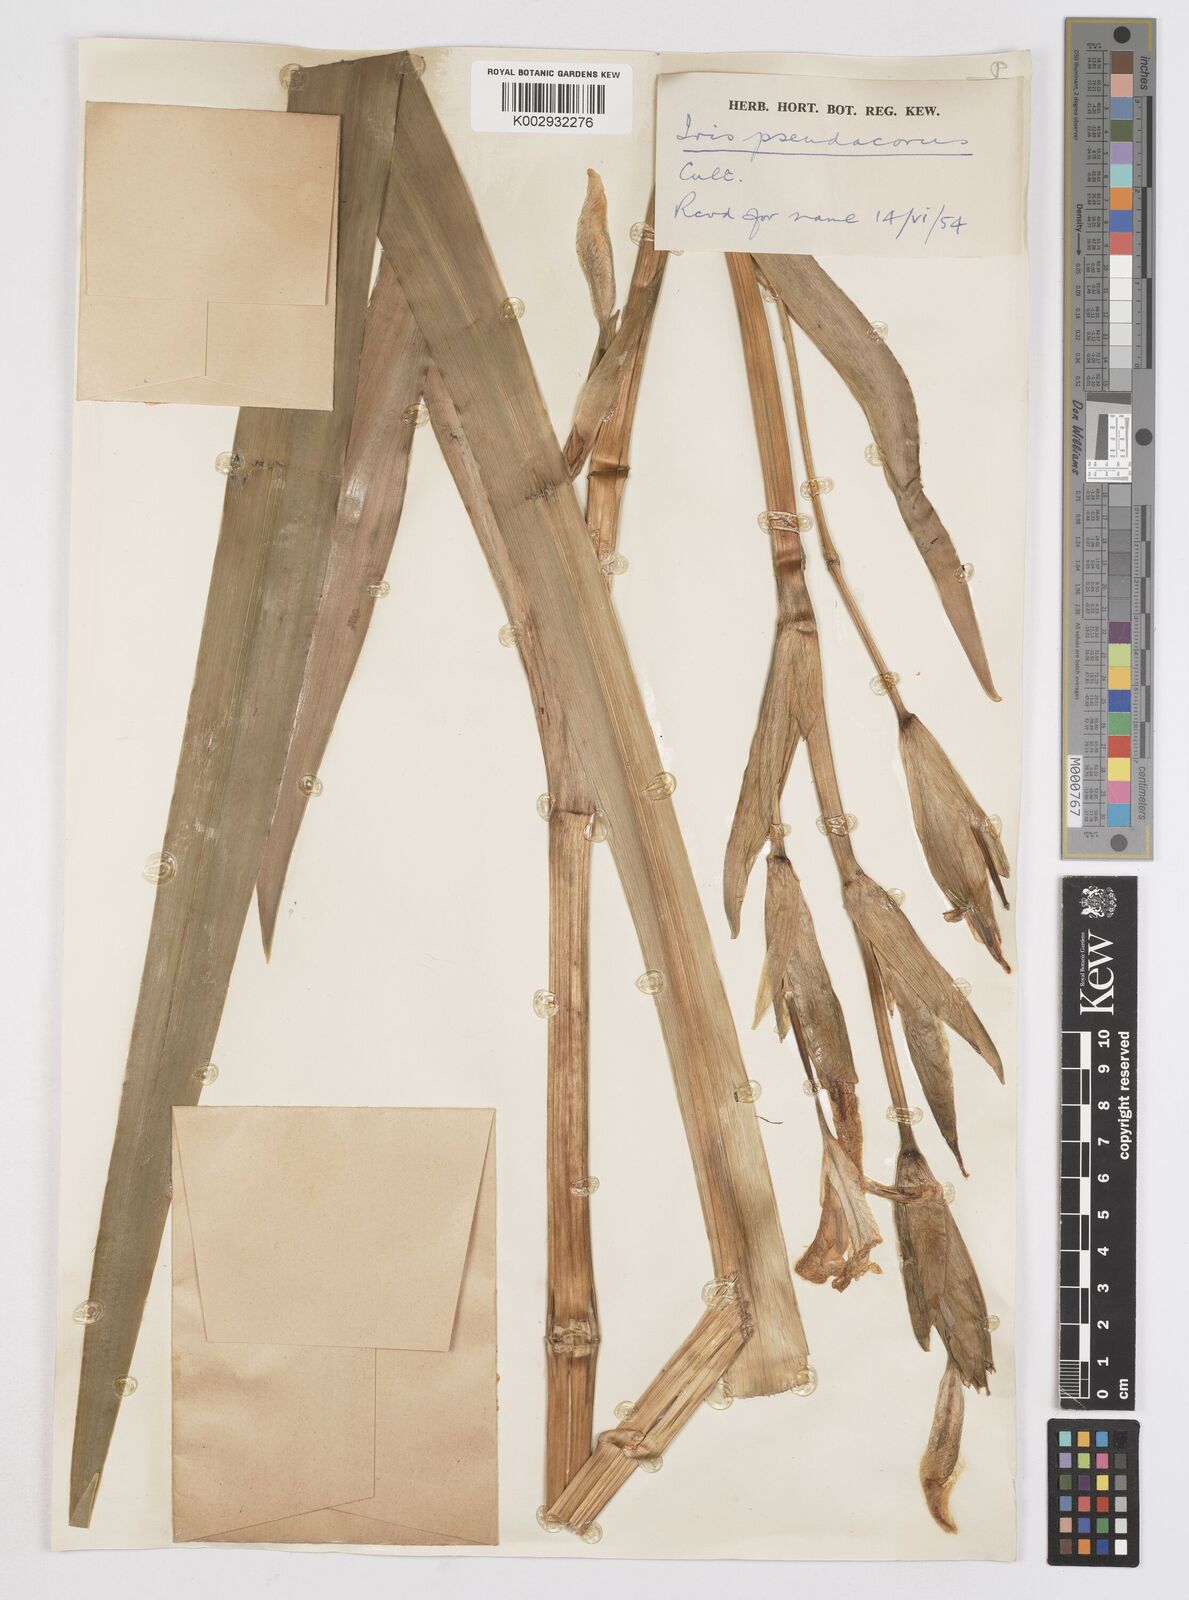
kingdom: Plantae
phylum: Tracheophyta
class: Liliopsida
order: Asparagales
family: Iridaceae
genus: Iris
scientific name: Iris pseudacorus
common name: Yellow flag
